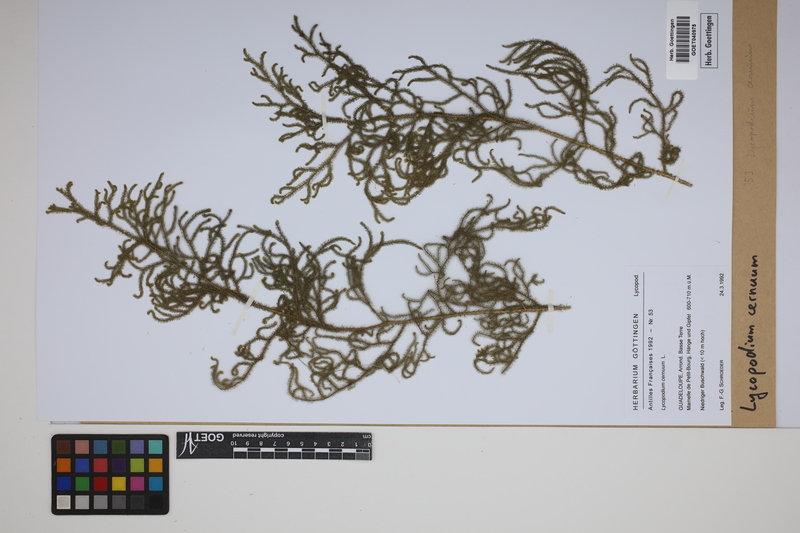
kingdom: Plantae
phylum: Tracheophyta
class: Lycopodiopsida
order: Lycopodiales
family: Lycopodiaceae
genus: Palhinhaea
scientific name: Palhinhaea cernua
